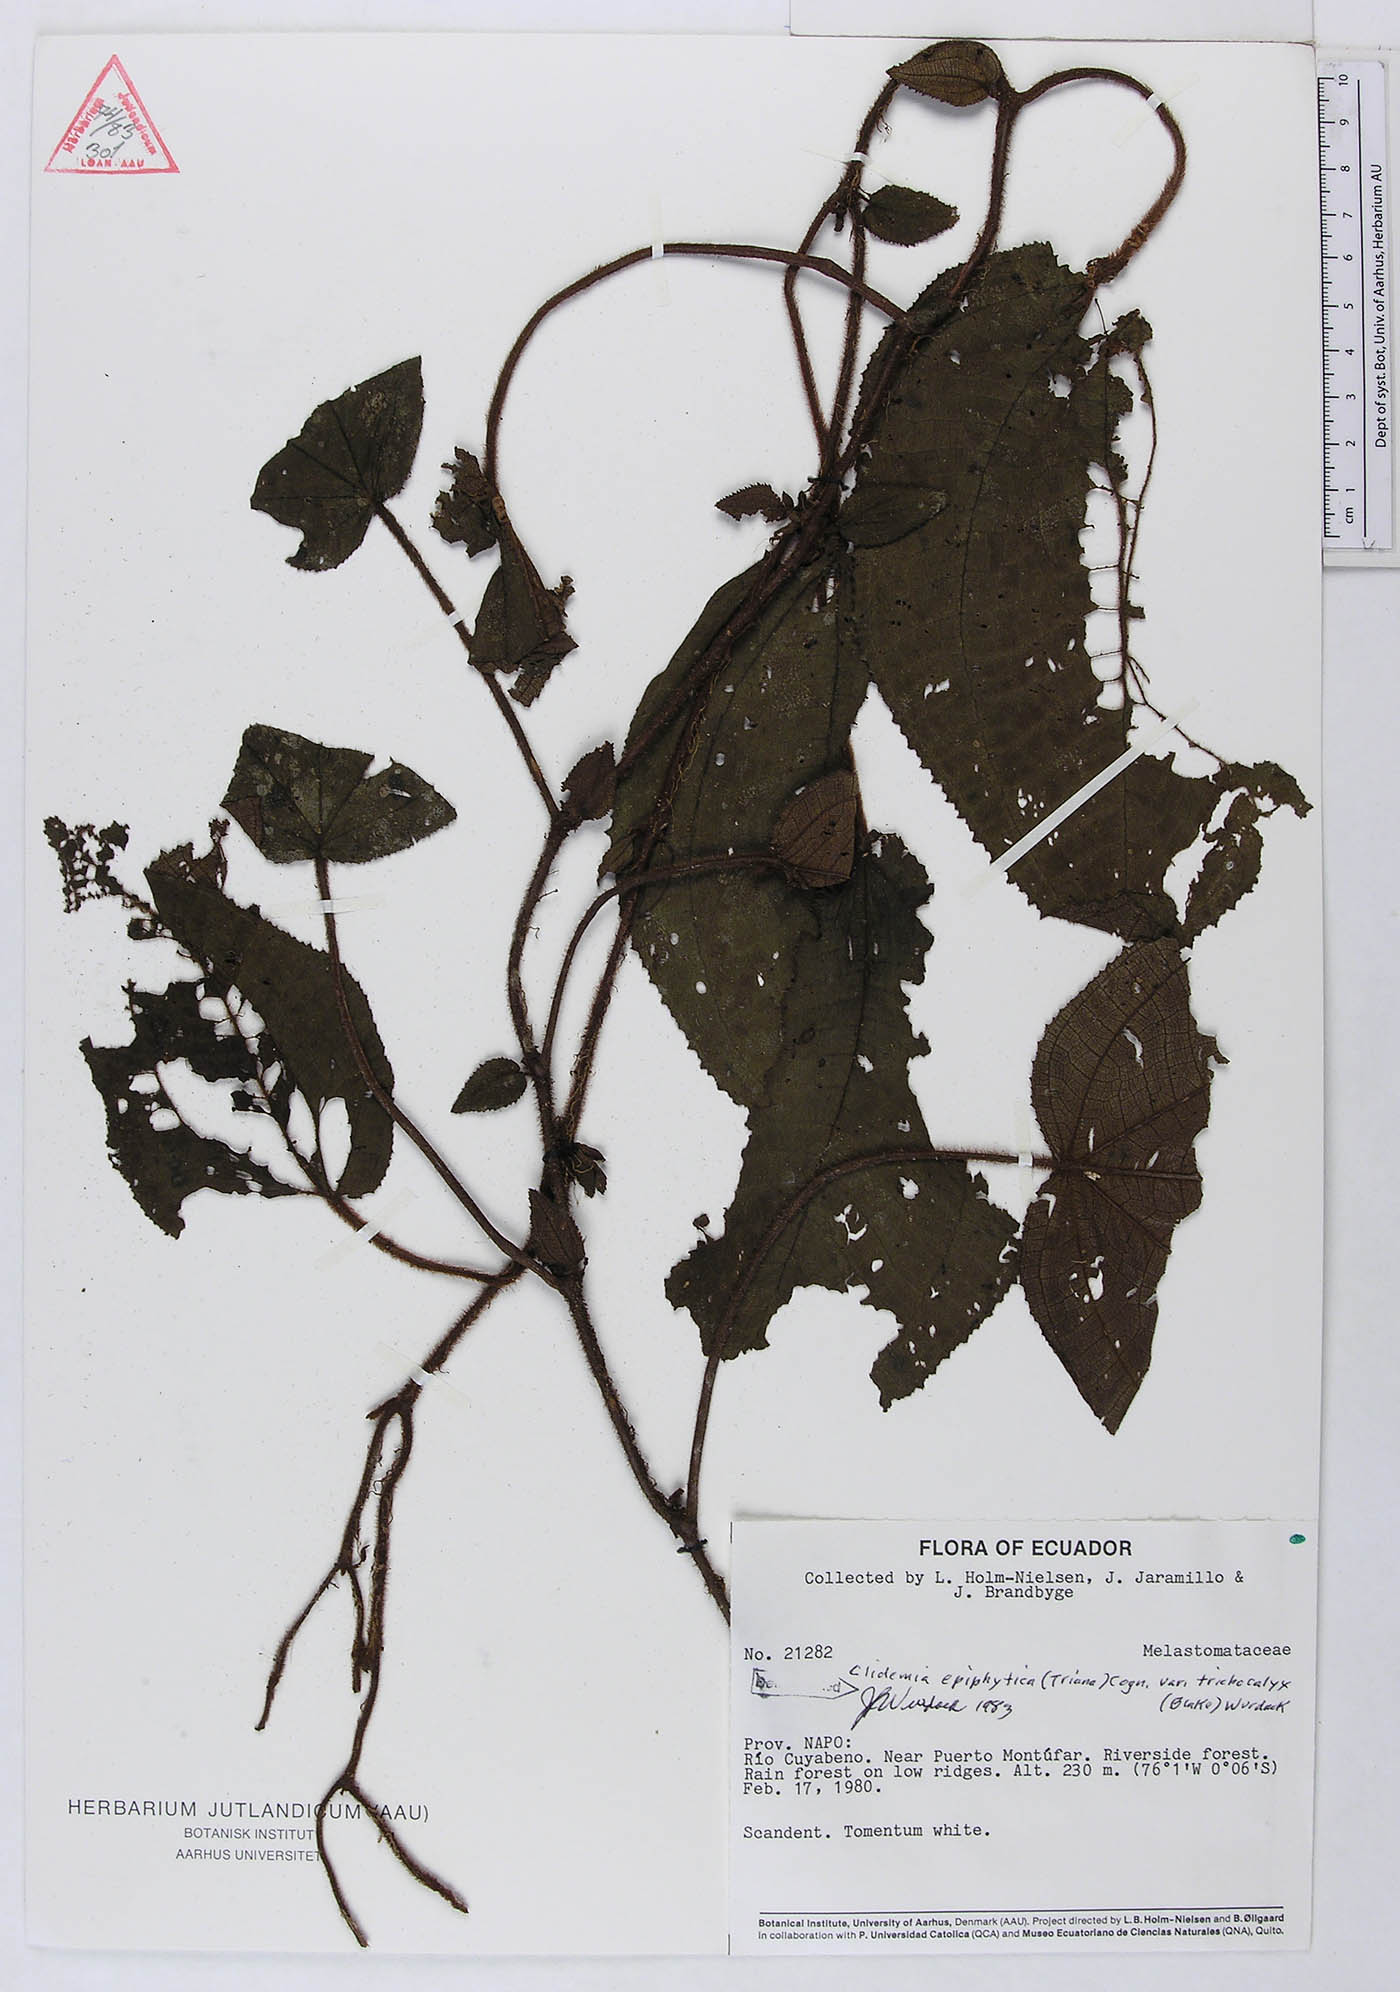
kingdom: Plantae
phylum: Tracheophyta
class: Magnoliopsida
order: Myrtales
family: Melastomataceae
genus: Miconia
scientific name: Miconia neoepiphytica
